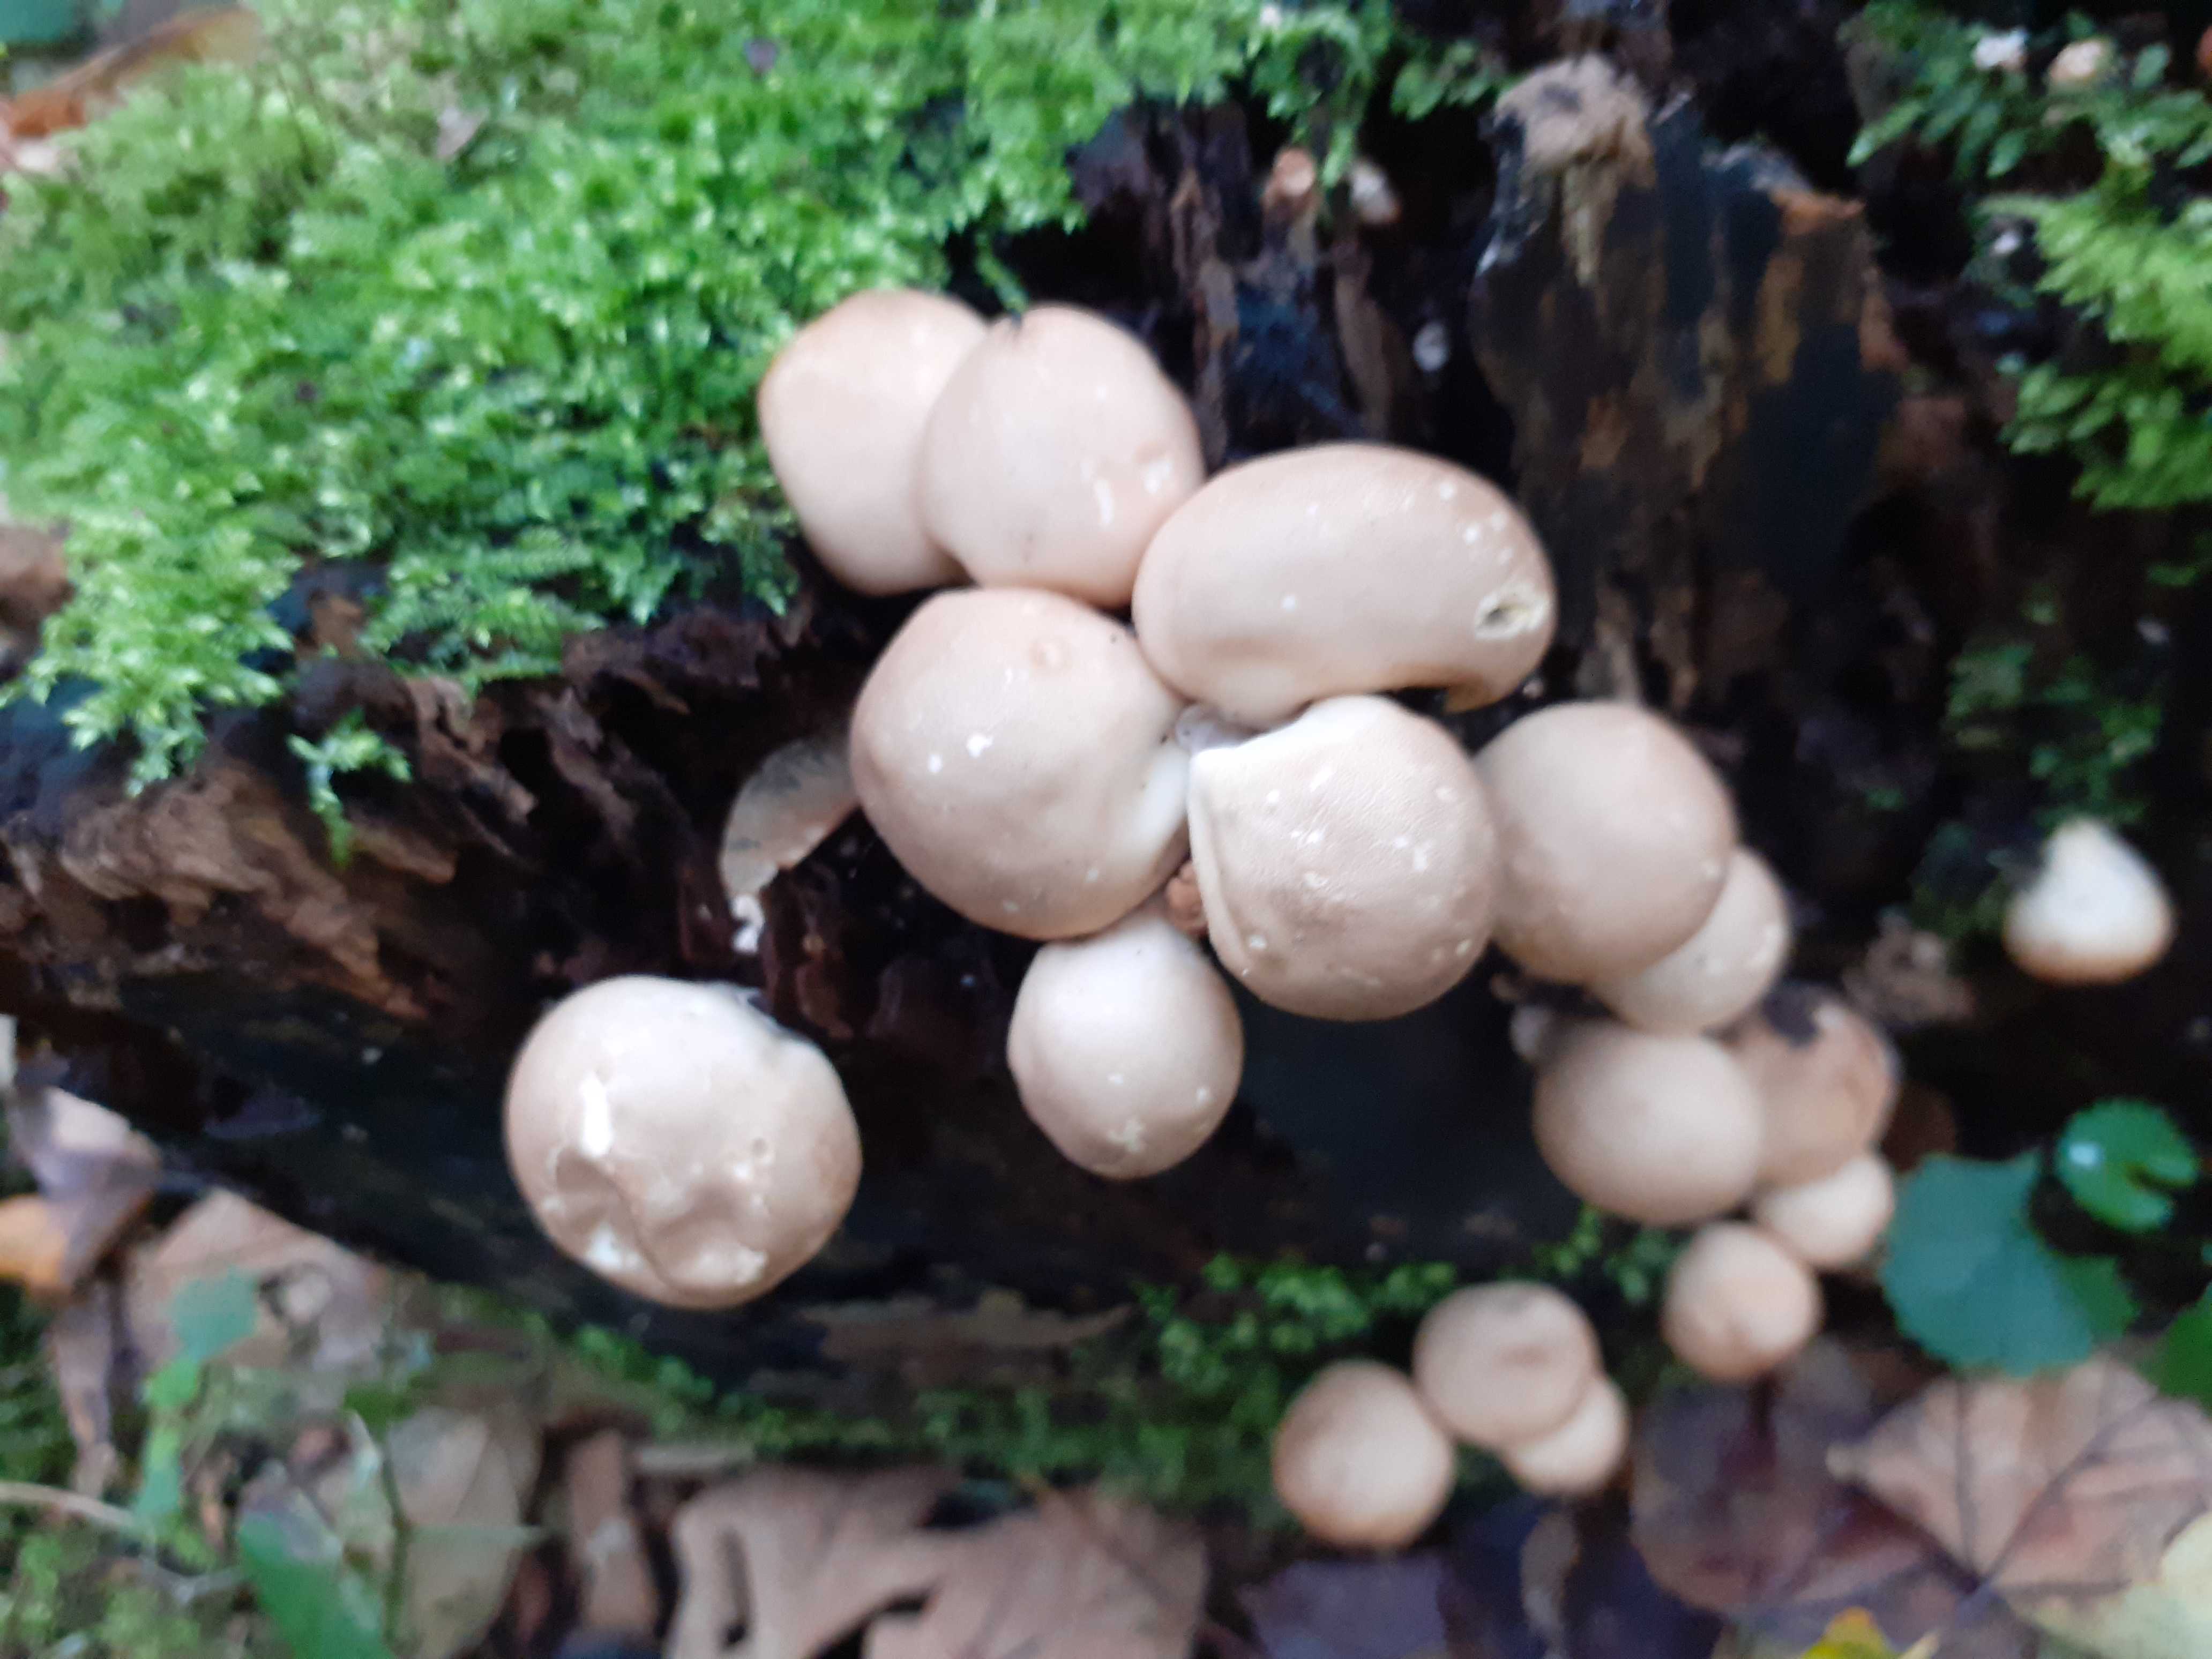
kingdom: Fungi
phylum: Basidiomycota
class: Agaricomycetes
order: Agaricales
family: Lycoperdaceae
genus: Apioperdon
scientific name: Apioperdon pyriforme
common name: pære-støvbold
